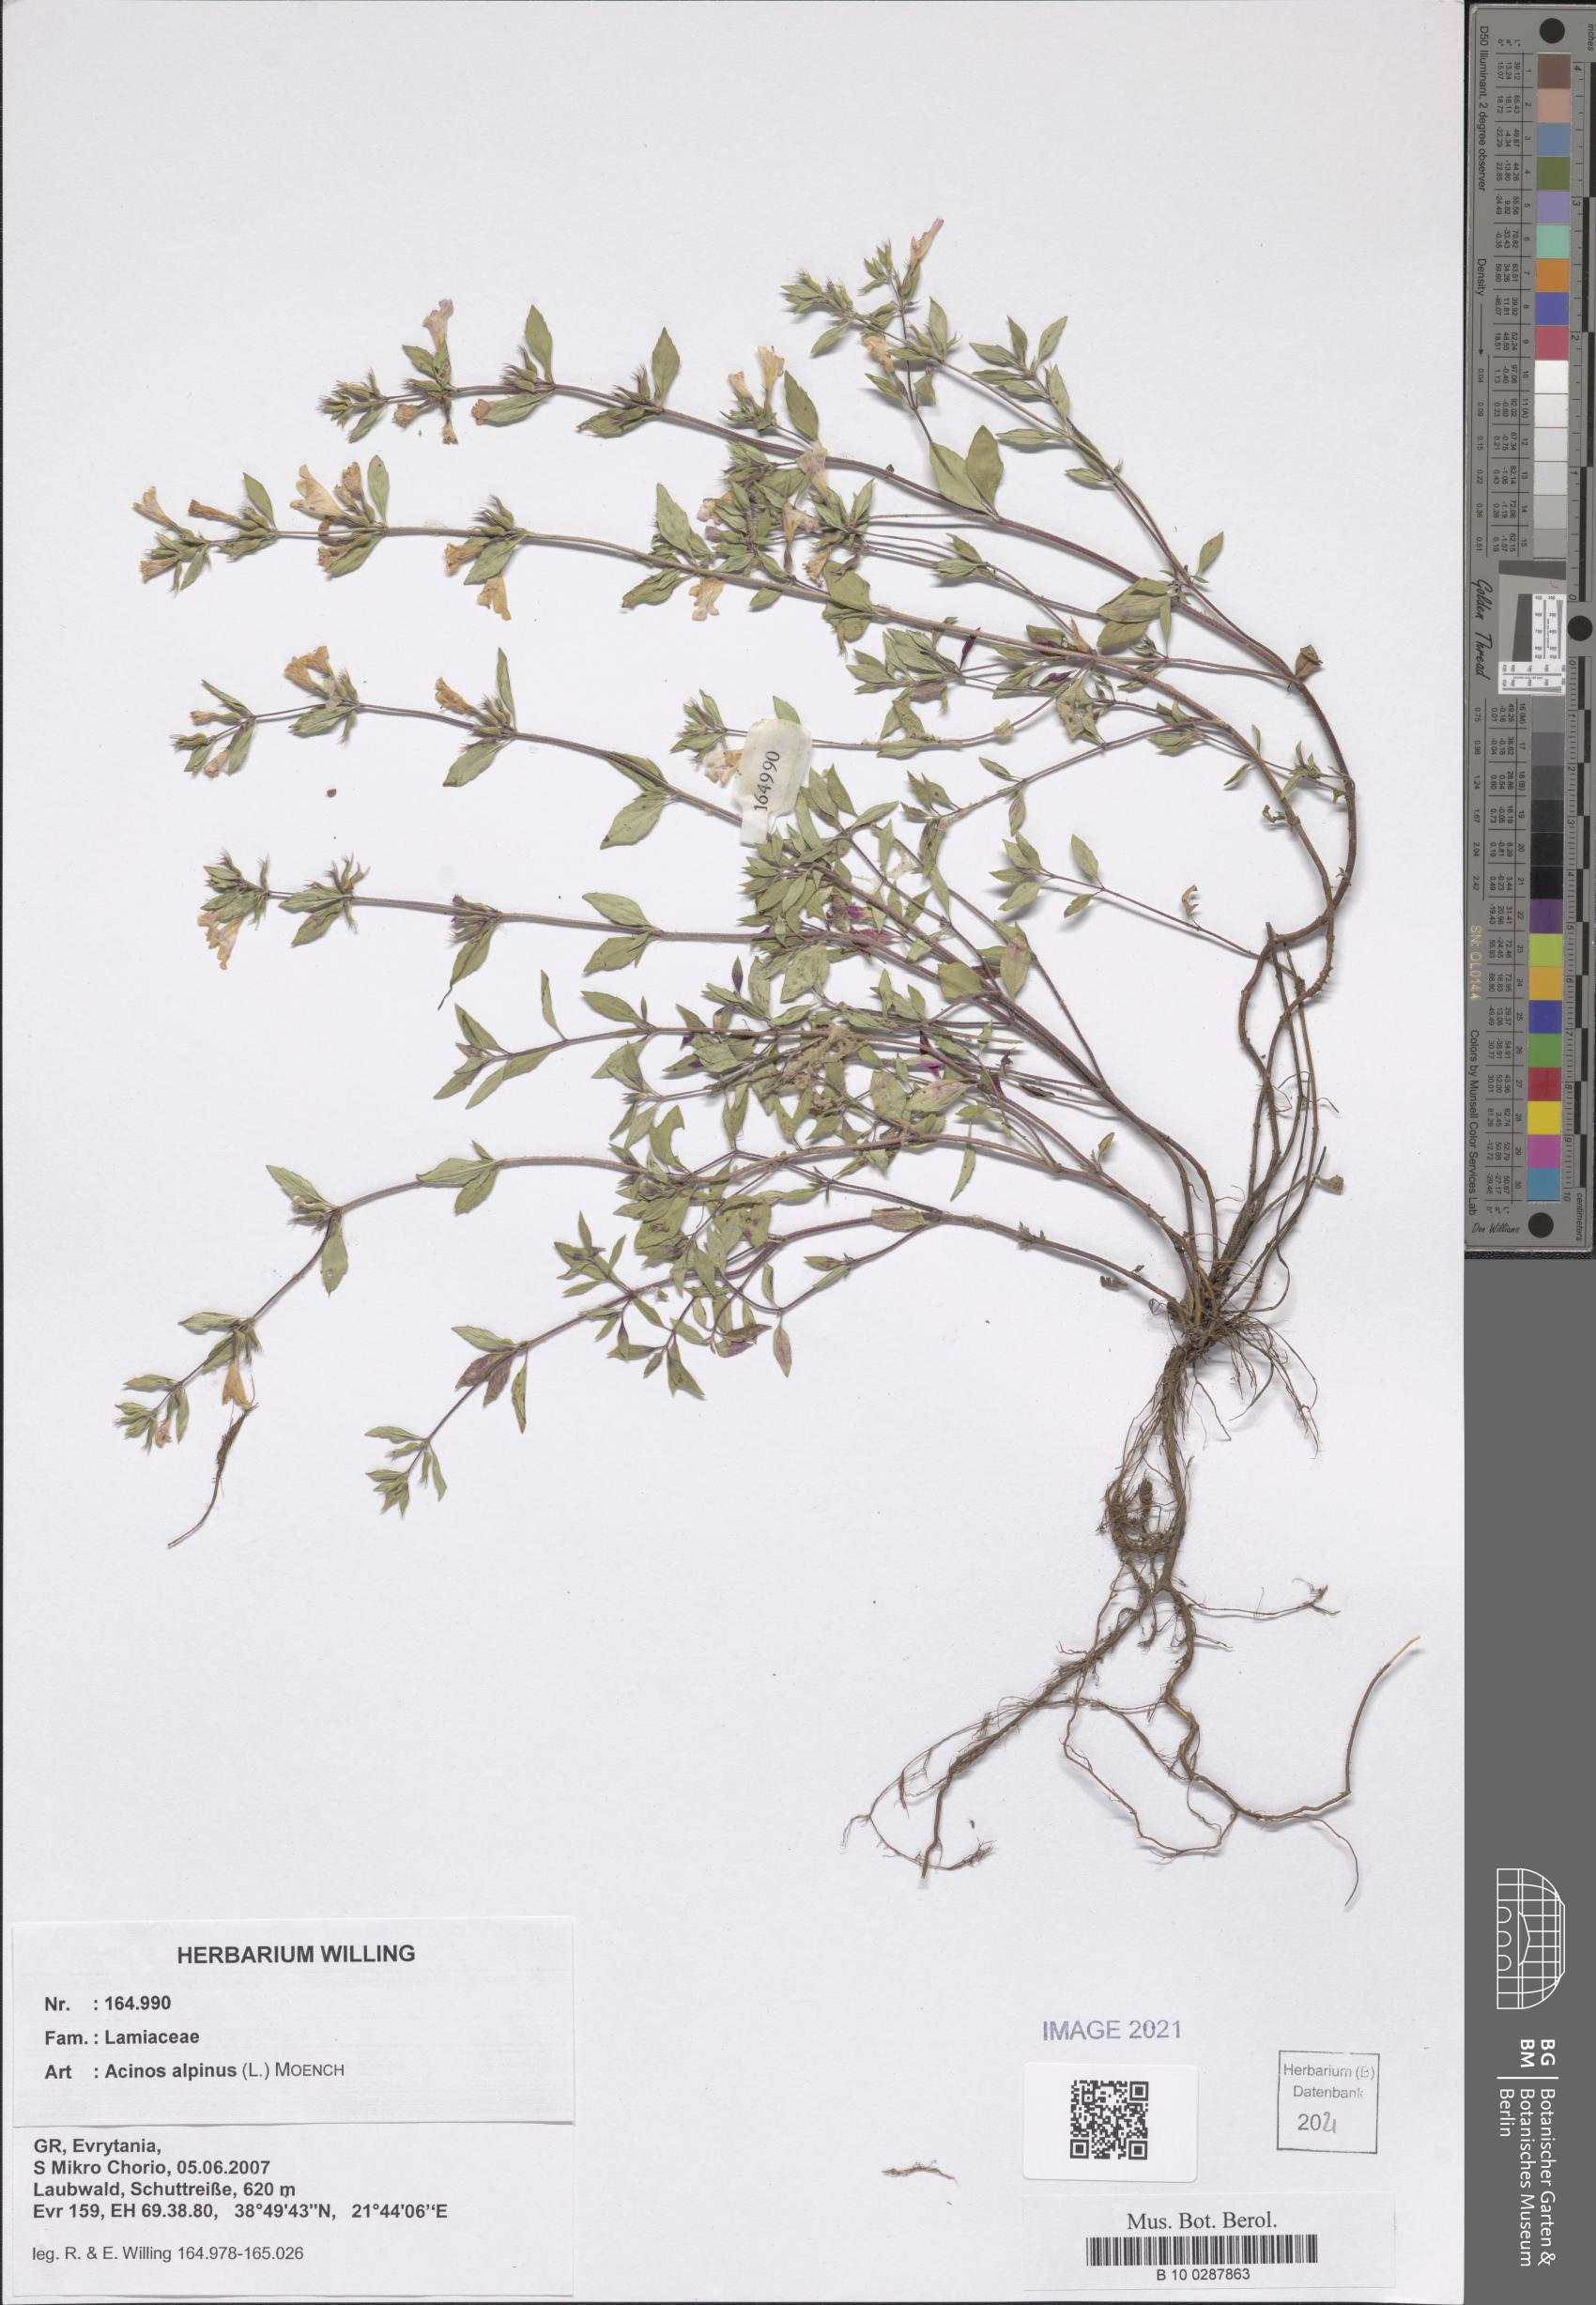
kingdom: Plantae
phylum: Tracheophyta
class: Magnoliopsida
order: Lamiales
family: Lamiaceae
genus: Clinopodium
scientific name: Clinopodium alpinum
